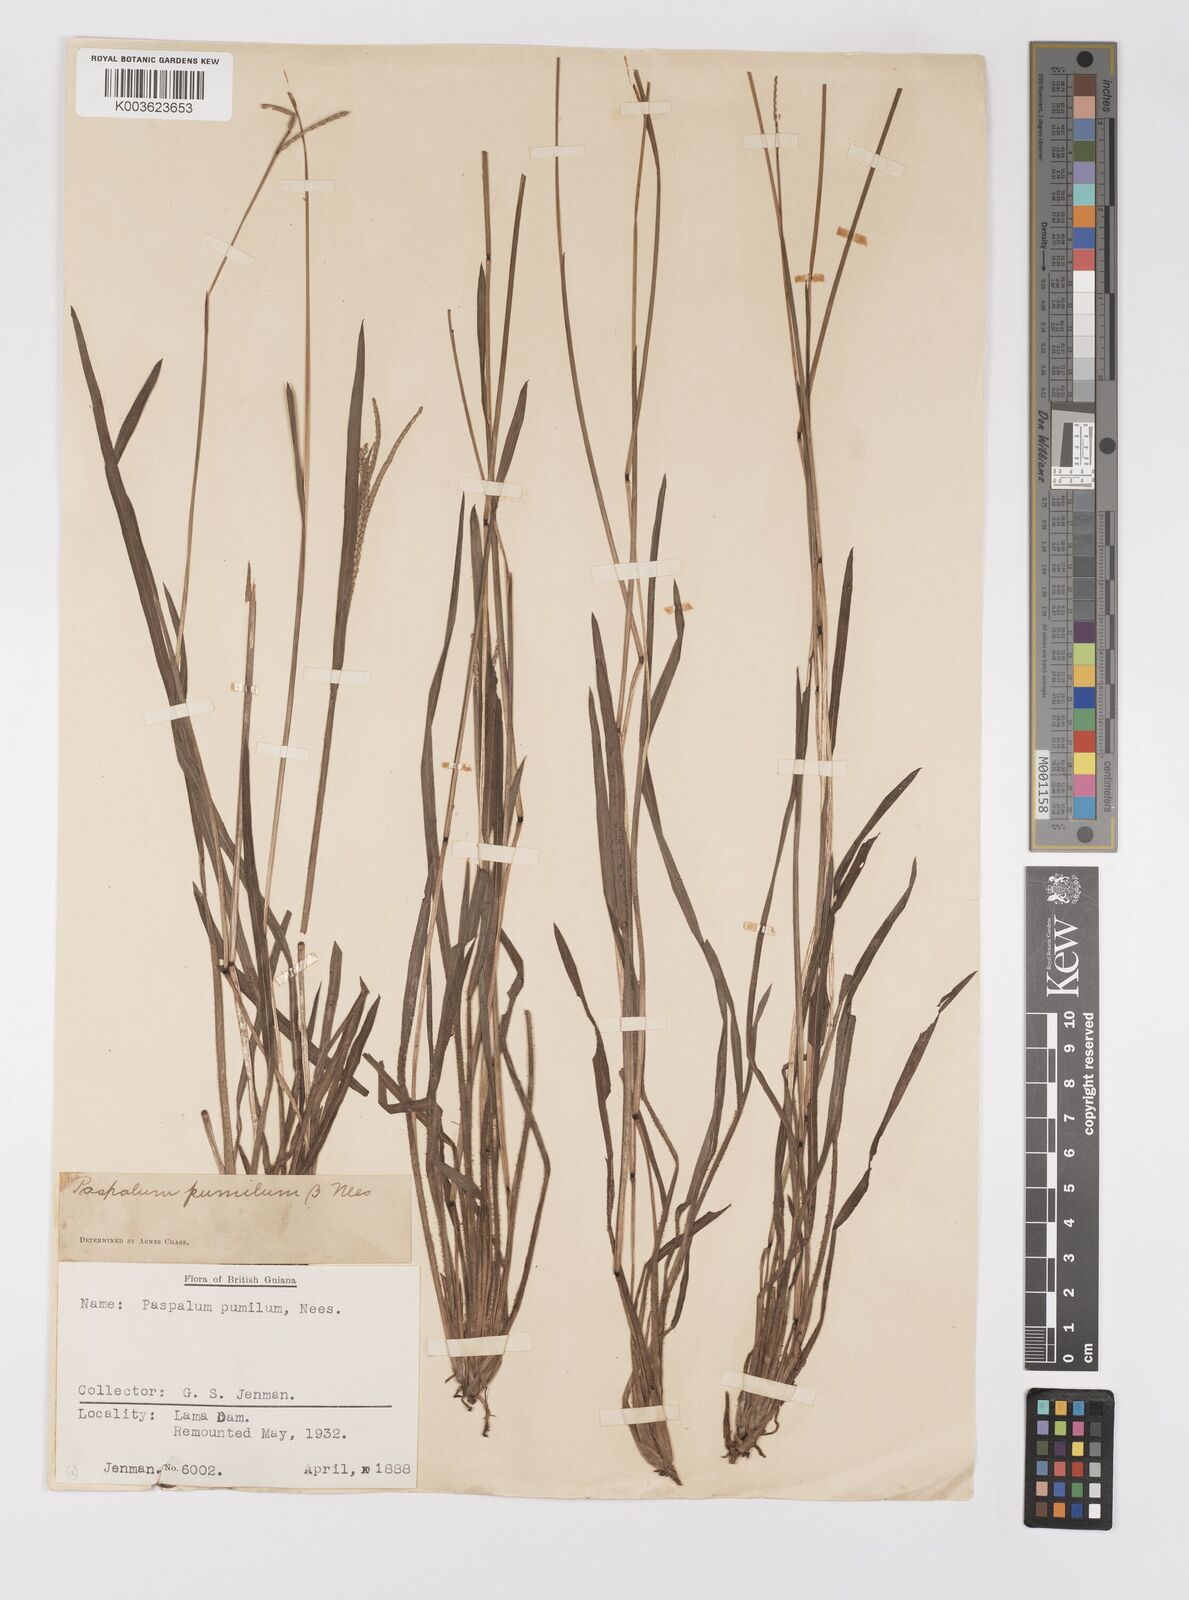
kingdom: Plantae
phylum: Tracheophyta
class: Liliopsida
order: Poales
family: Poaceae
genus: Paspalum
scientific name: Paspalum pumilum
